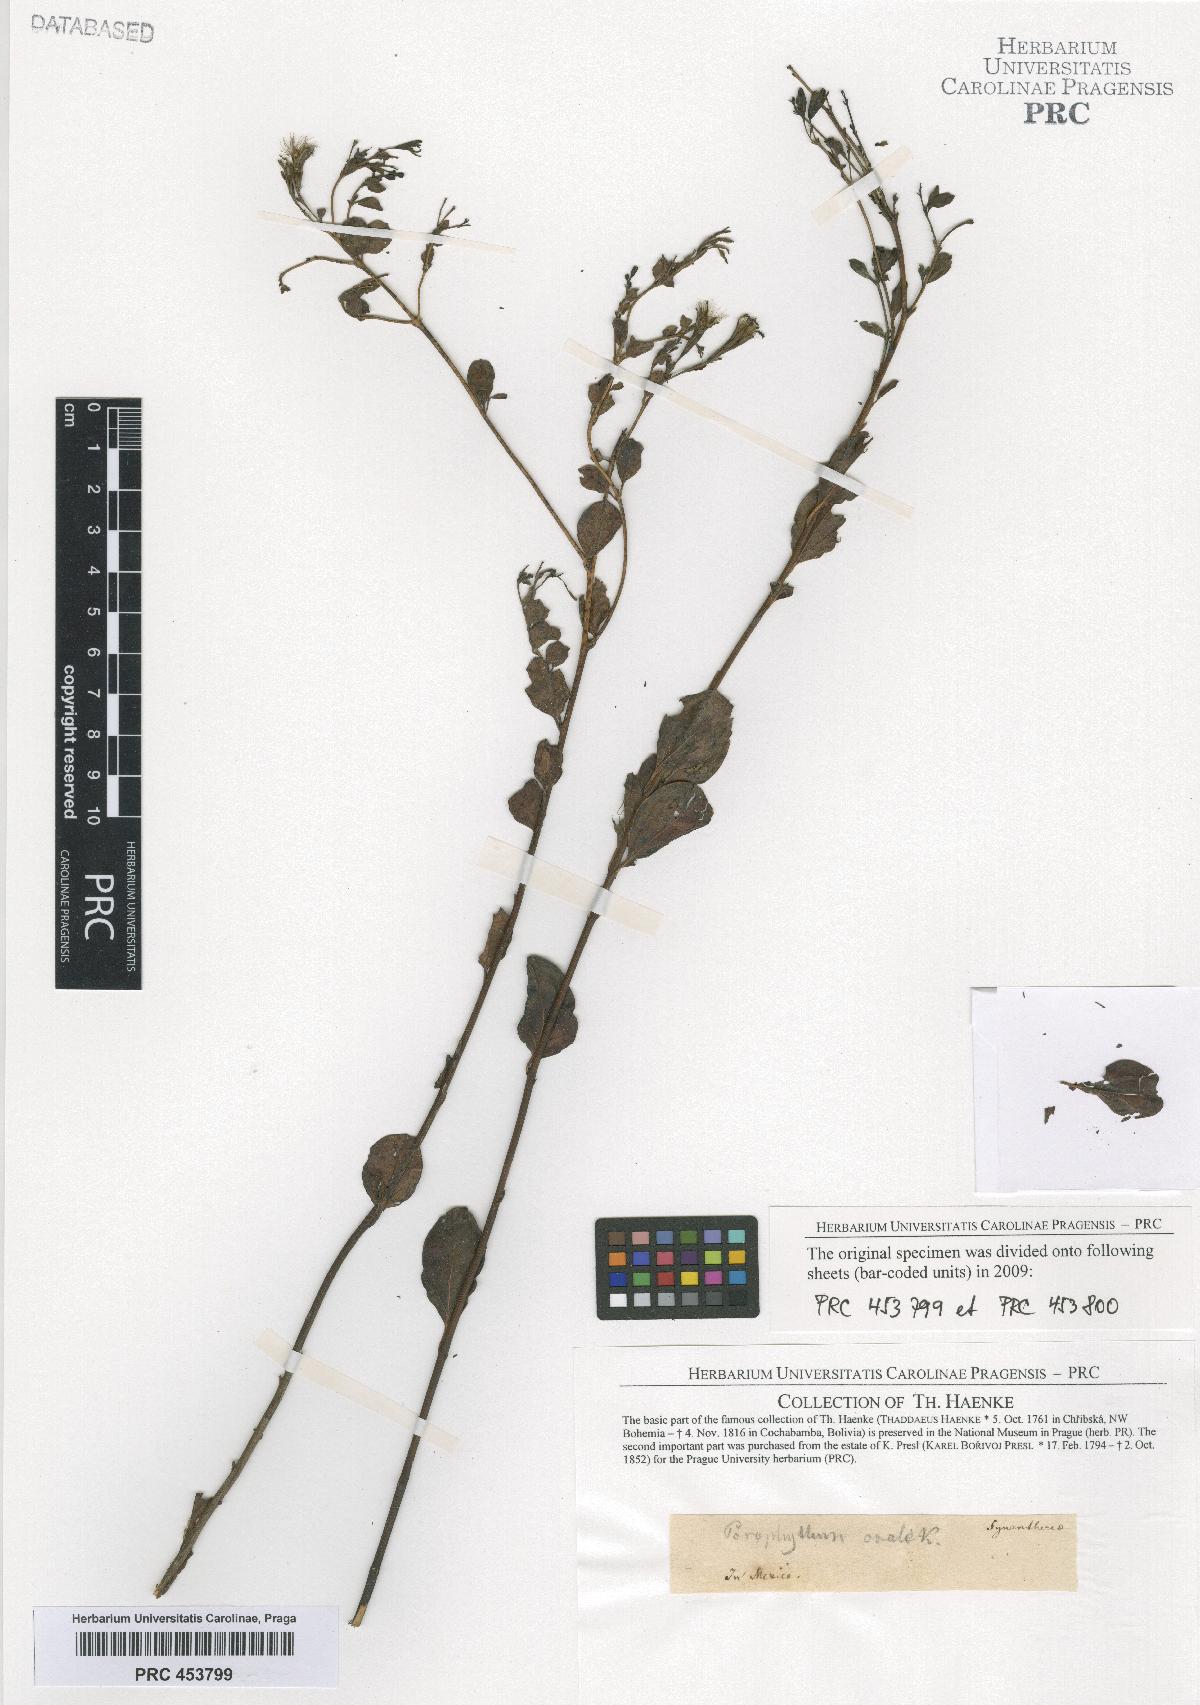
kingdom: Plantae
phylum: Tracheophyta
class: Magnoliopsida
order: Asterales
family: Asteraceae
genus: Porophyllum
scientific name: Porophyllum
